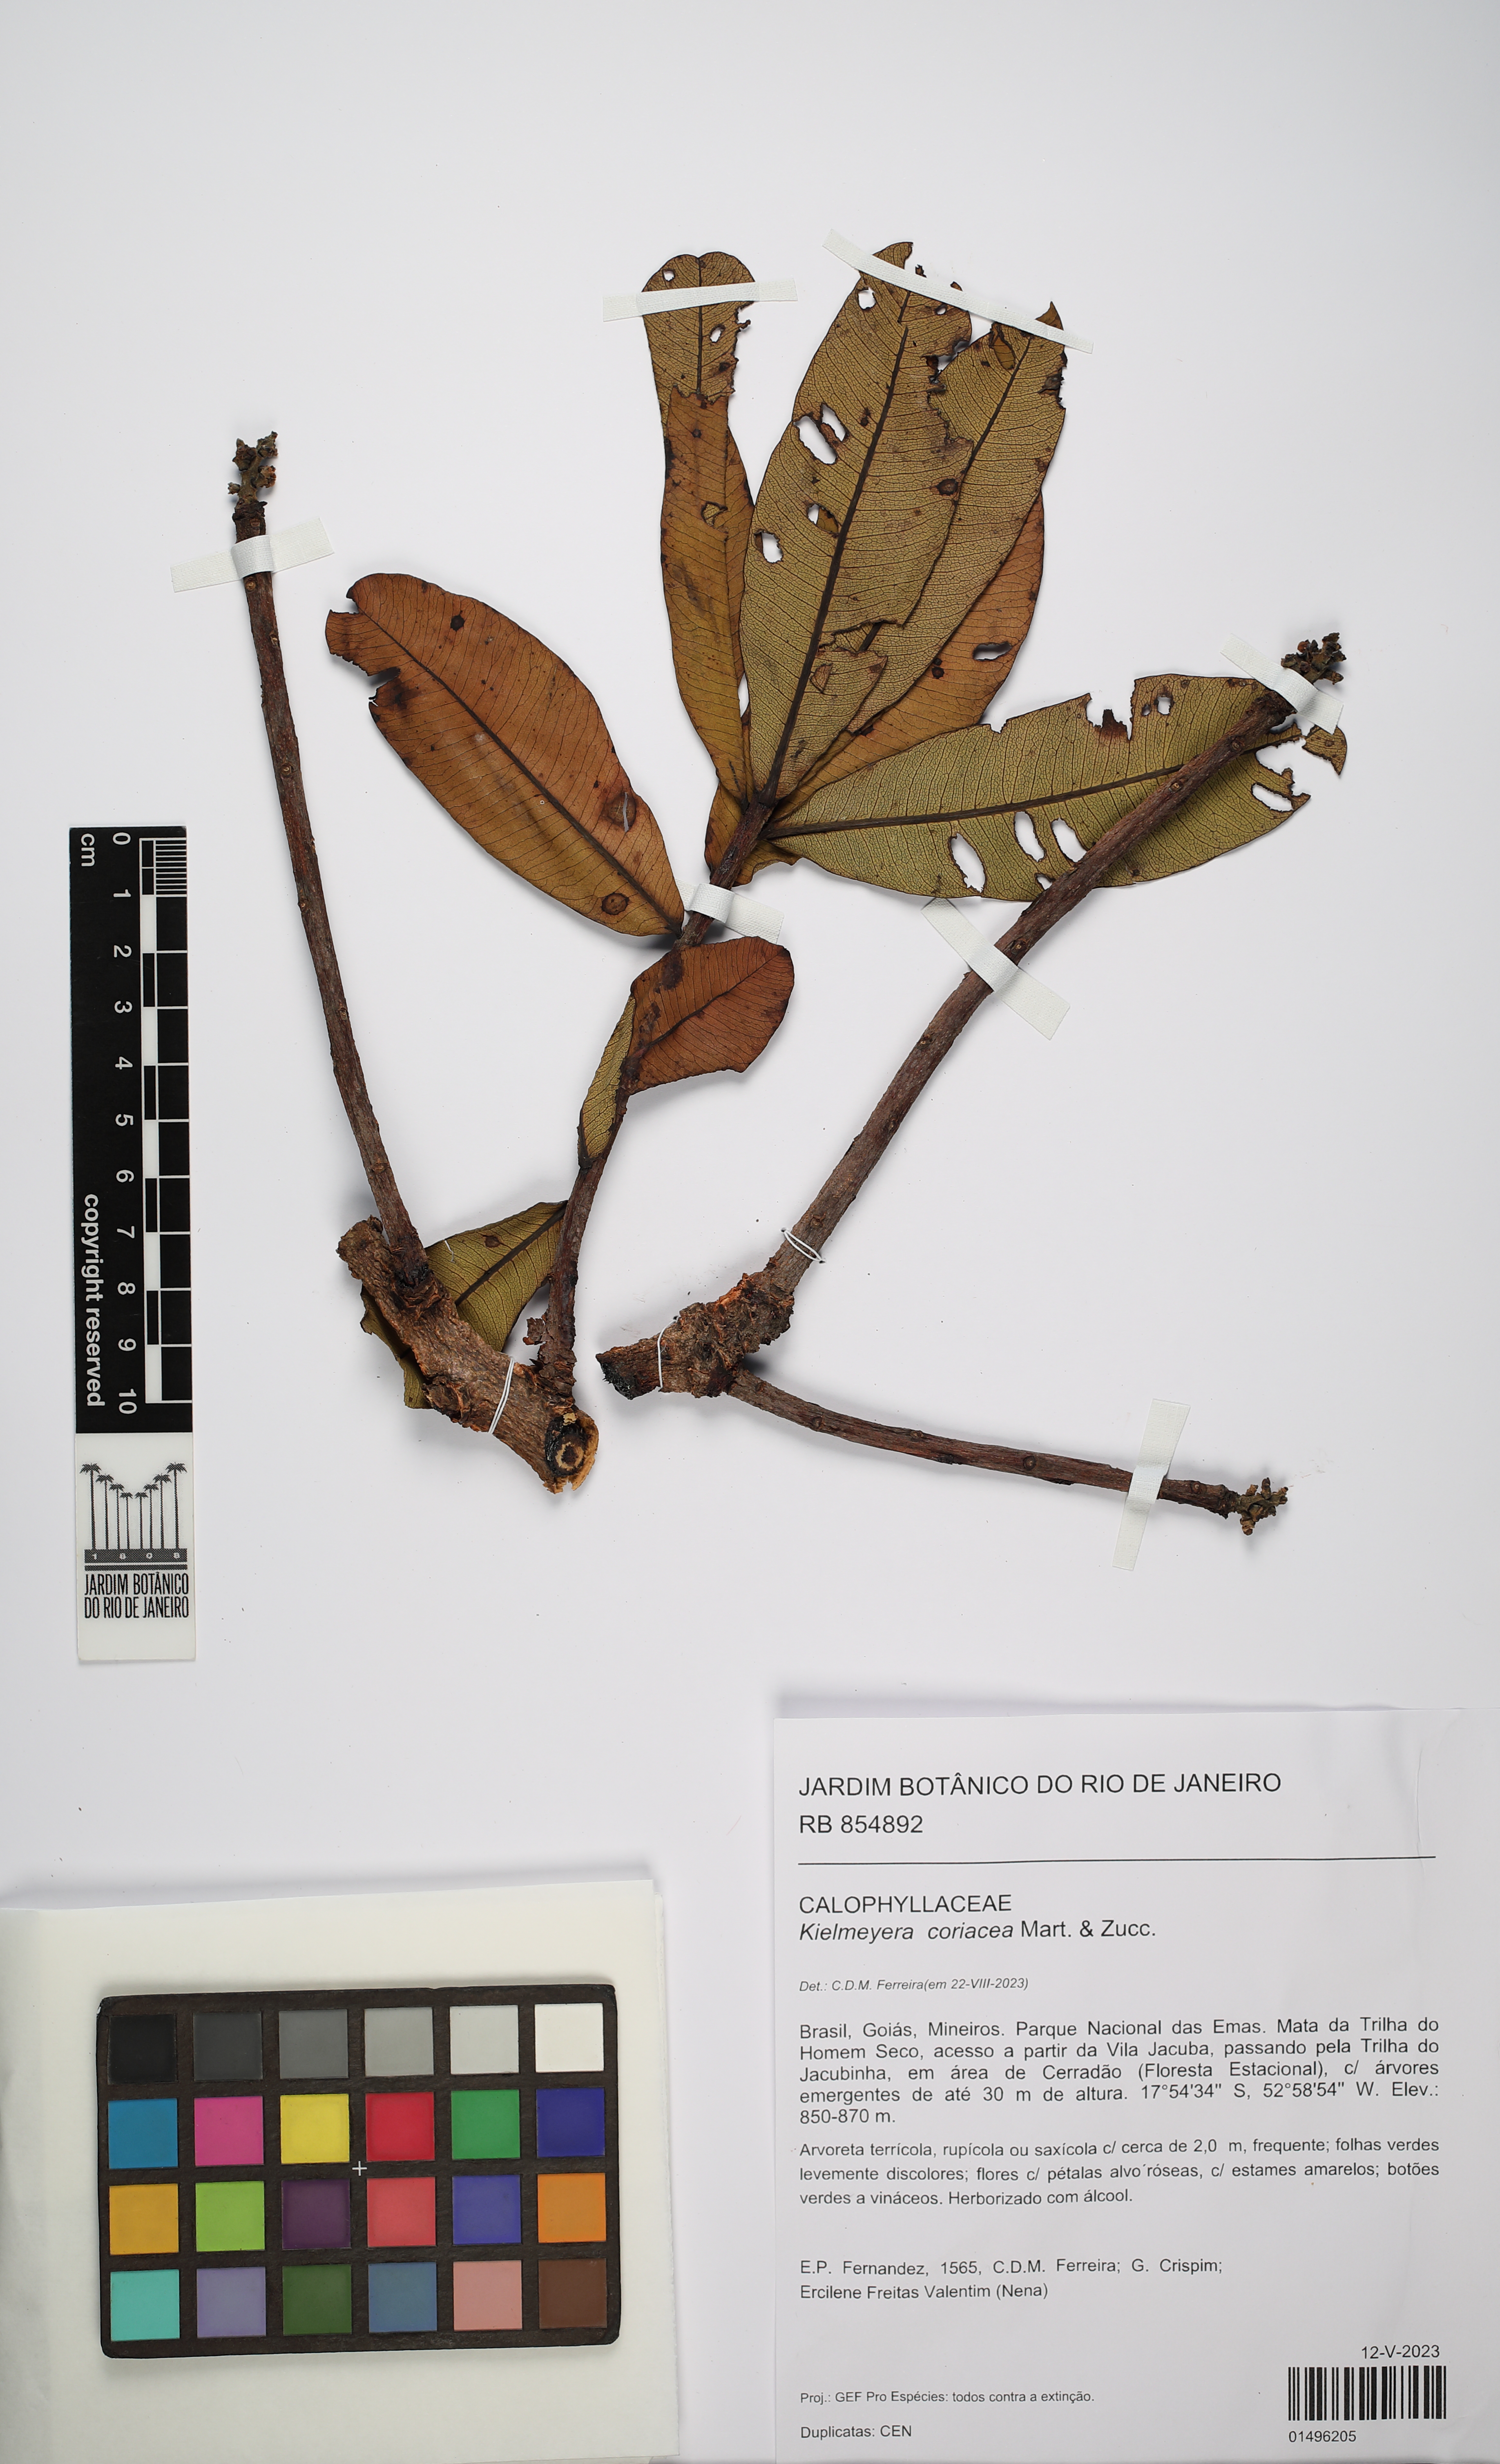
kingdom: Plantae
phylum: Tracheophyta
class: Magnoliopsida
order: Malpighiales
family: Calophyllaceae
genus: Kielmeyera
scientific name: Kielmeyera coriacea
